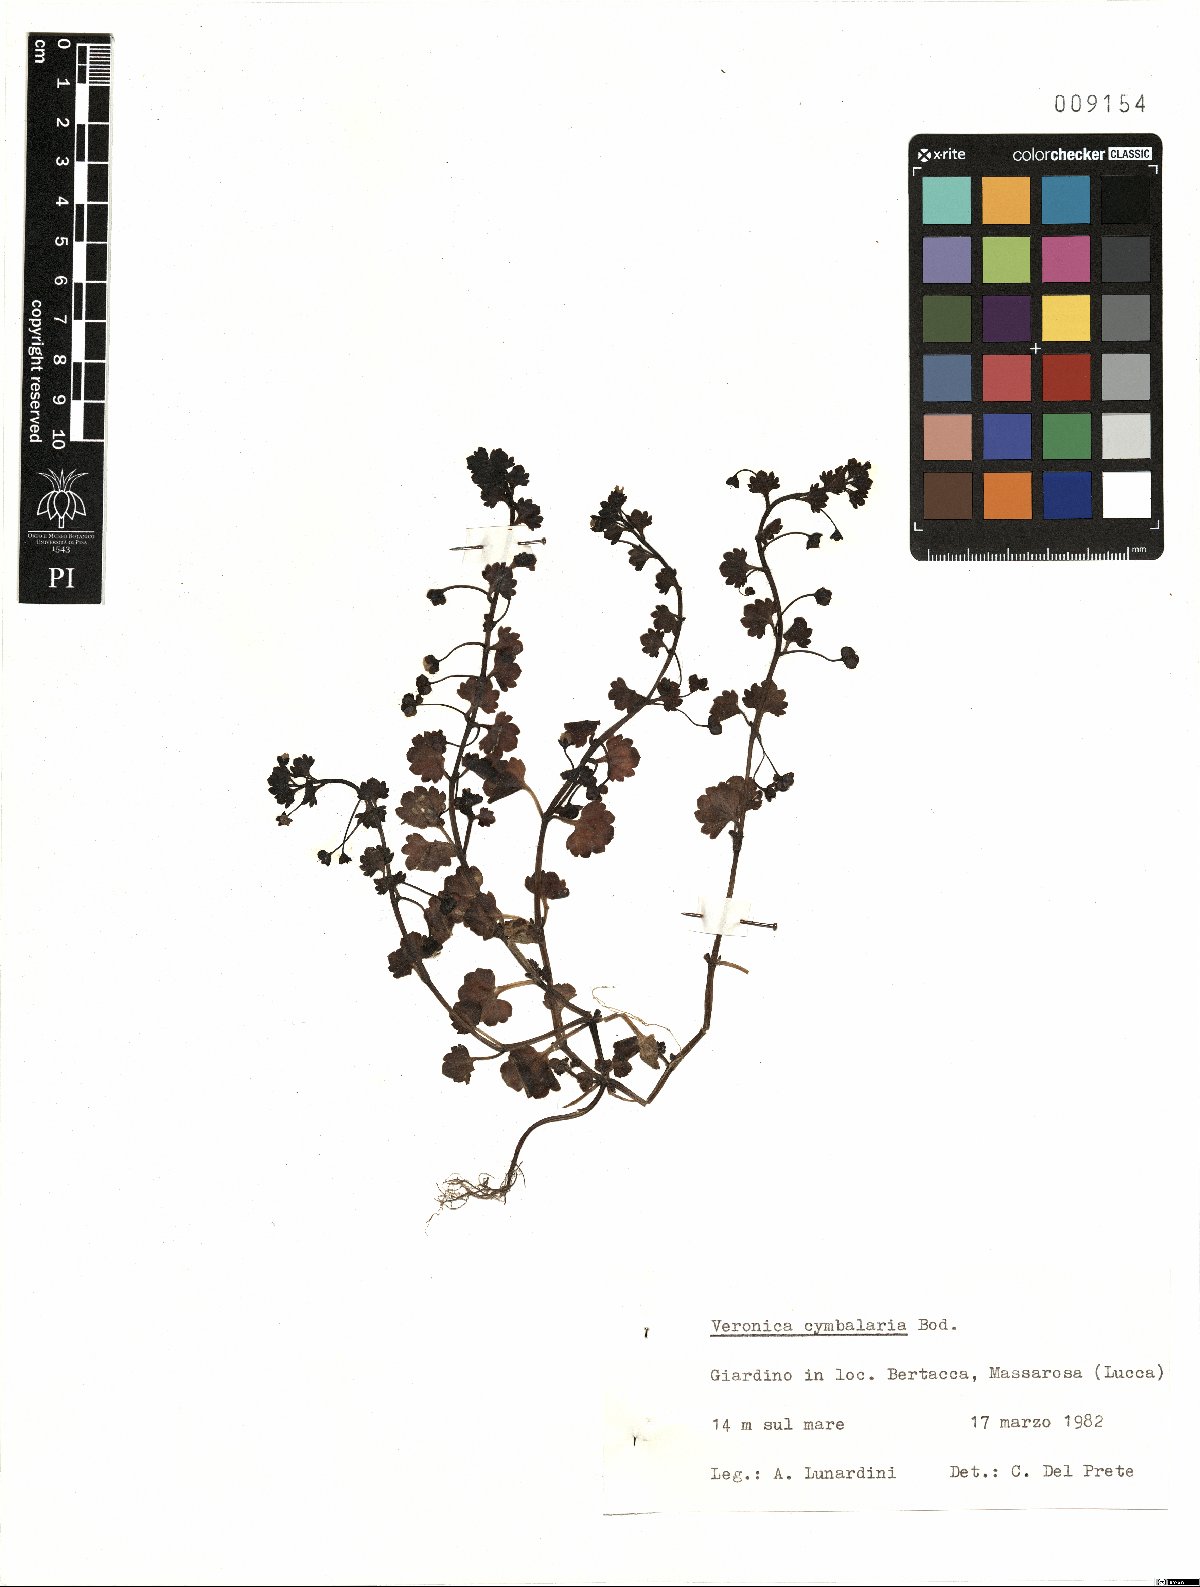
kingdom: Plantae
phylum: Tracheophyta
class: Magnoliopsida
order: Lamiales
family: Plantaginaceae
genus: Veronica
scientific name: Veronica cymbalaria
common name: Pale speedwell
